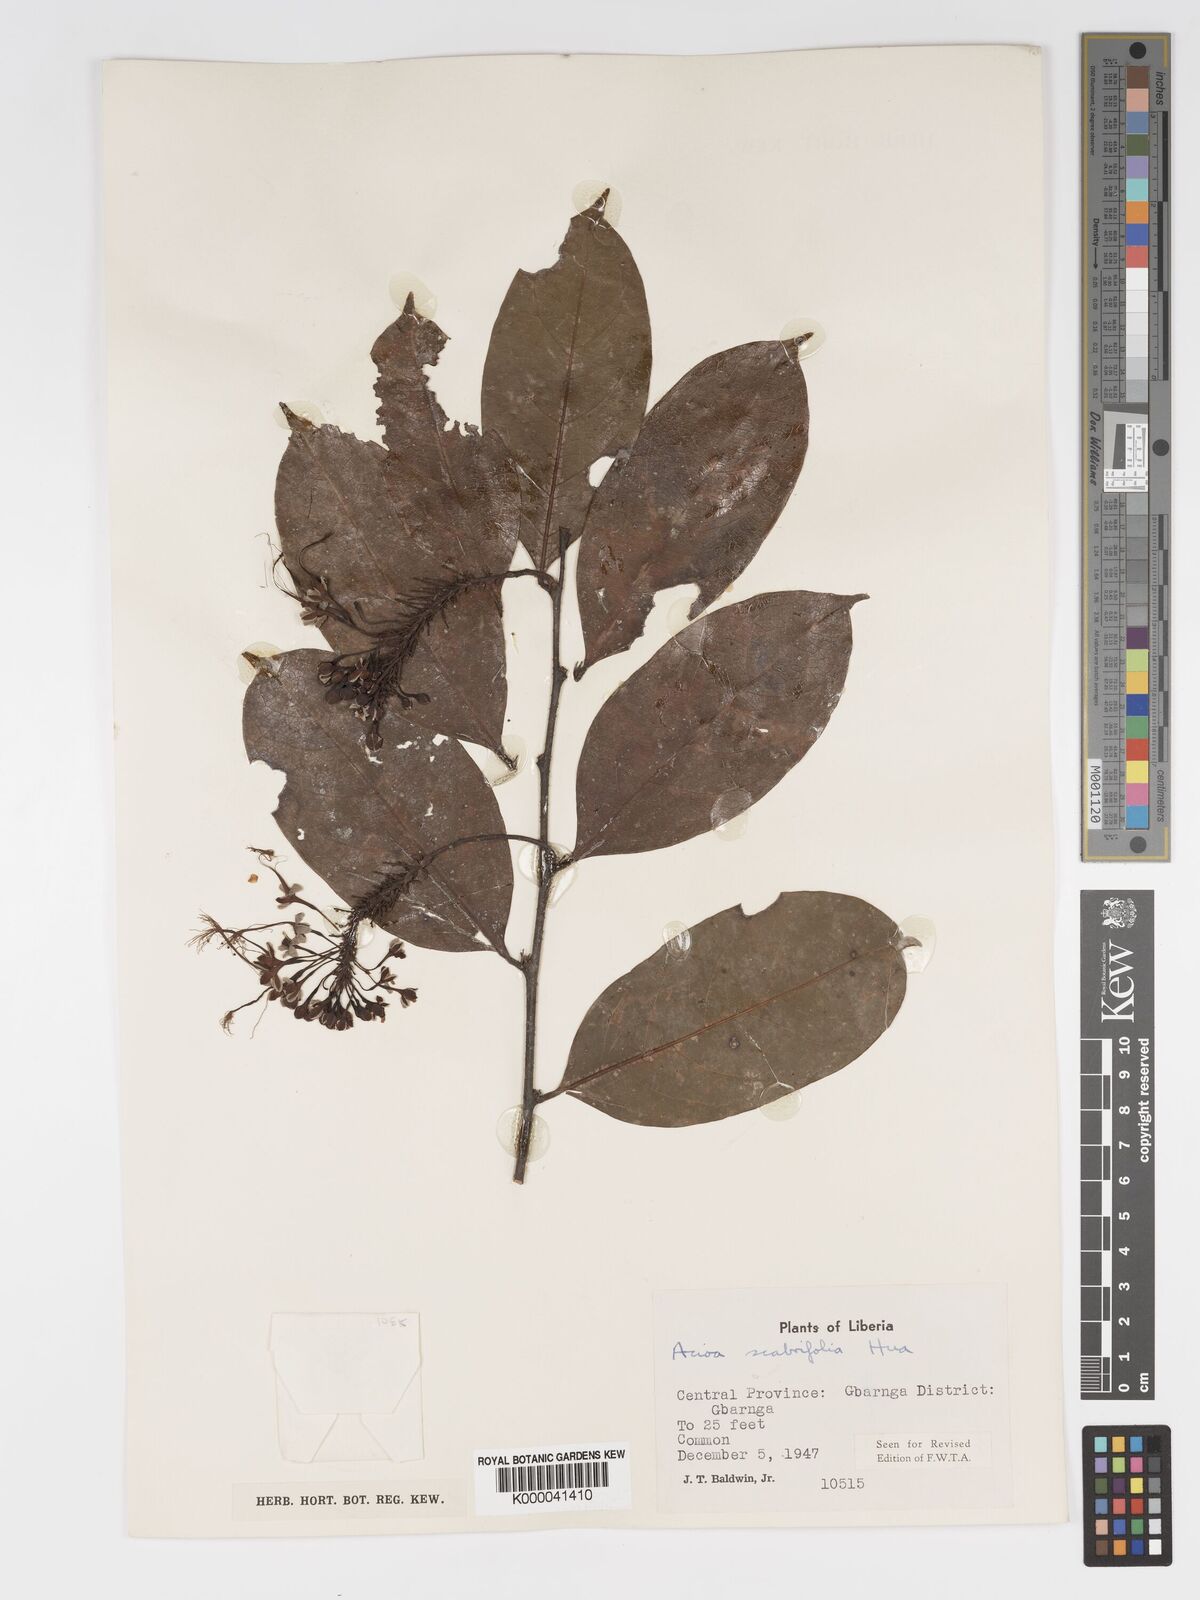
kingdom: Plantae
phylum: Tracheophyta
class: Magnoliopsida
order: Malpighiales
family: Chrysobalanaceae
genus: Dactyladenia
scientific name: Dactyladenia scabrifolia
